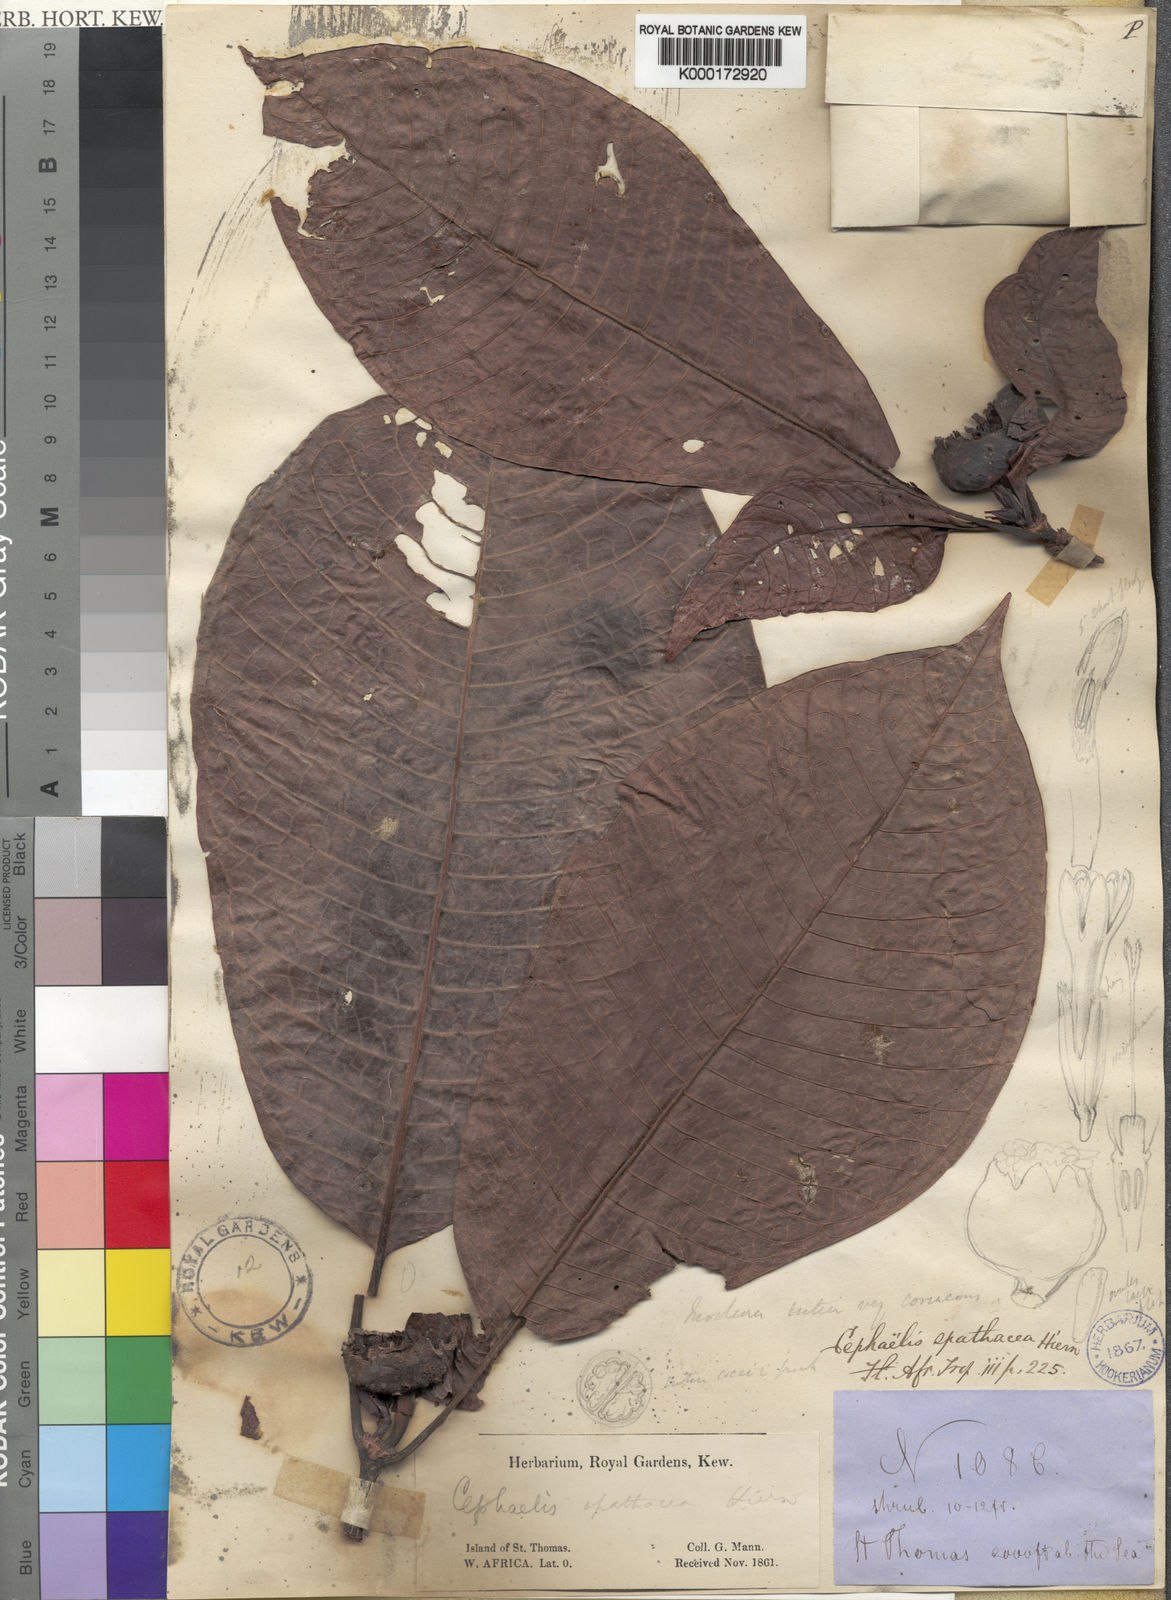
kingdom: Plantae
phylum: Tracheophyta
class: Magnoliopsida
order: Gentianales
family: Rubiaceae
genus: Psychotria
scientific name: Psychotria spathacea
